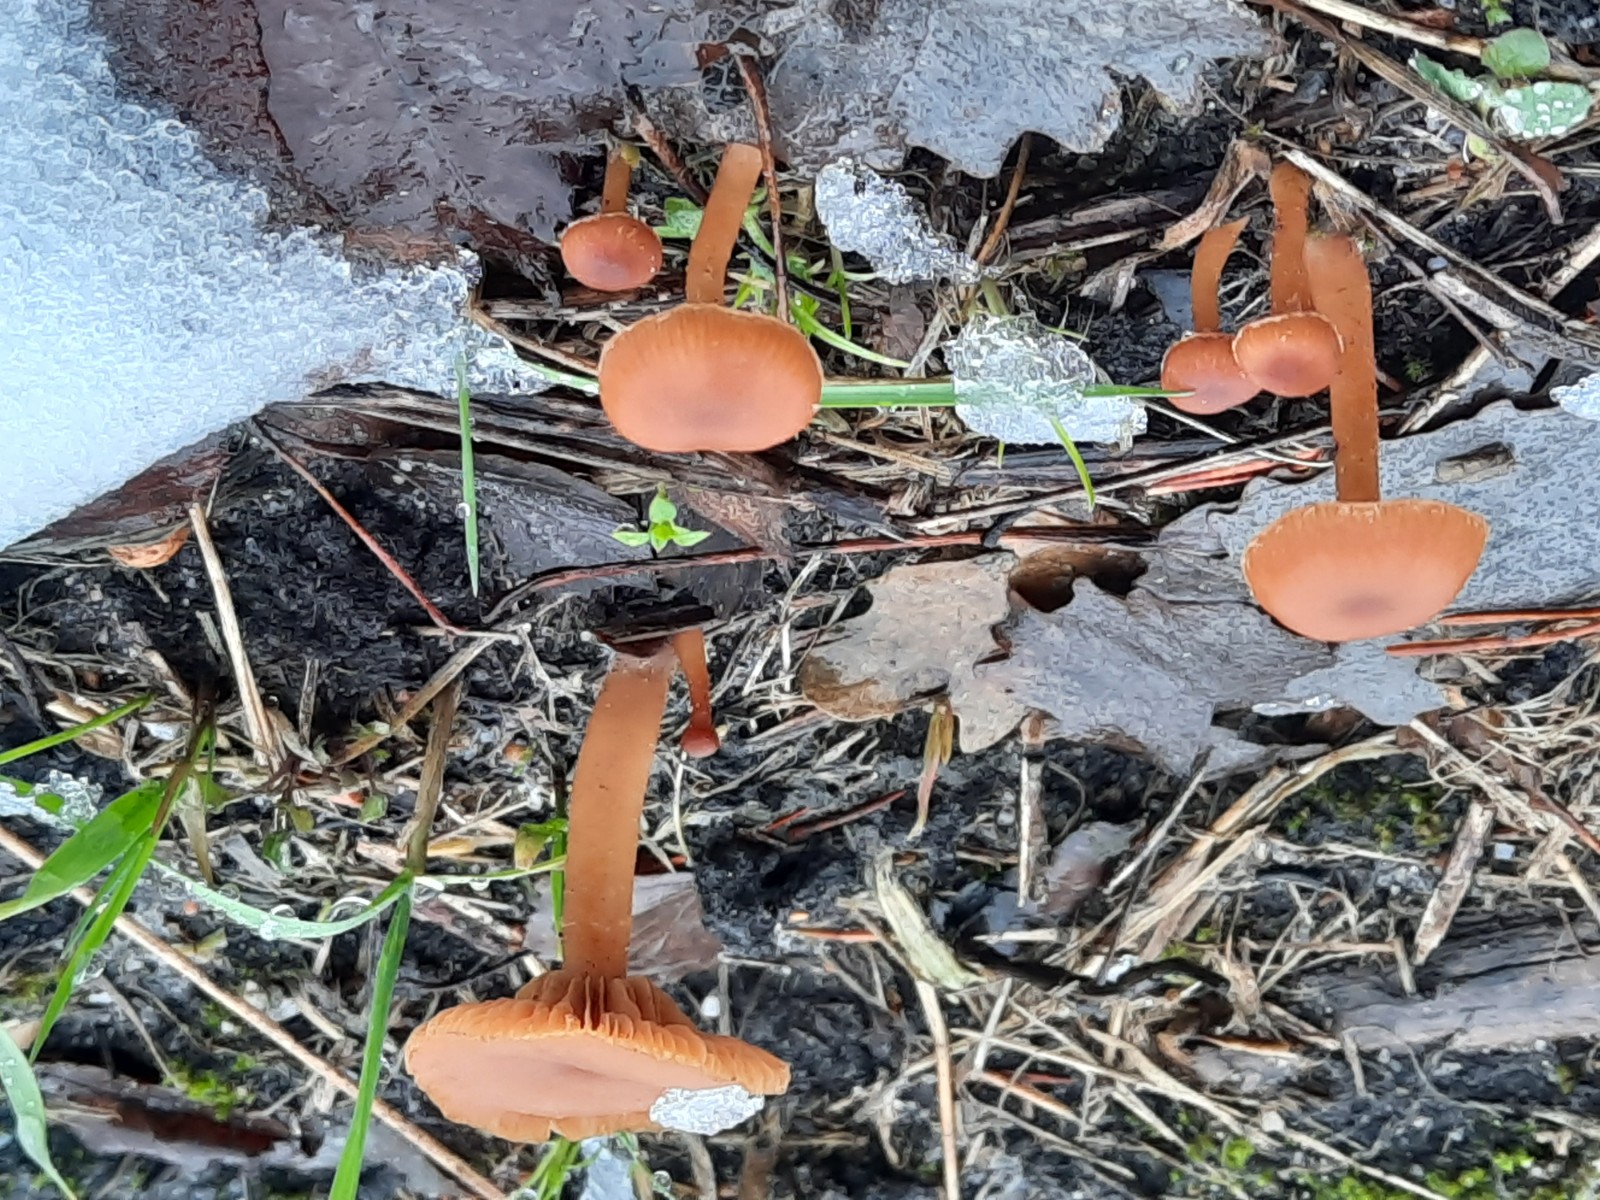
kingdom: Fungi
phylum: Basidiomycota
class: Agaricomycetes
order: Agaricales
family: Tubariaceae
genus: Tubaria
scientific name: Tubaria furfuracea
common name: kliddet fnughat
